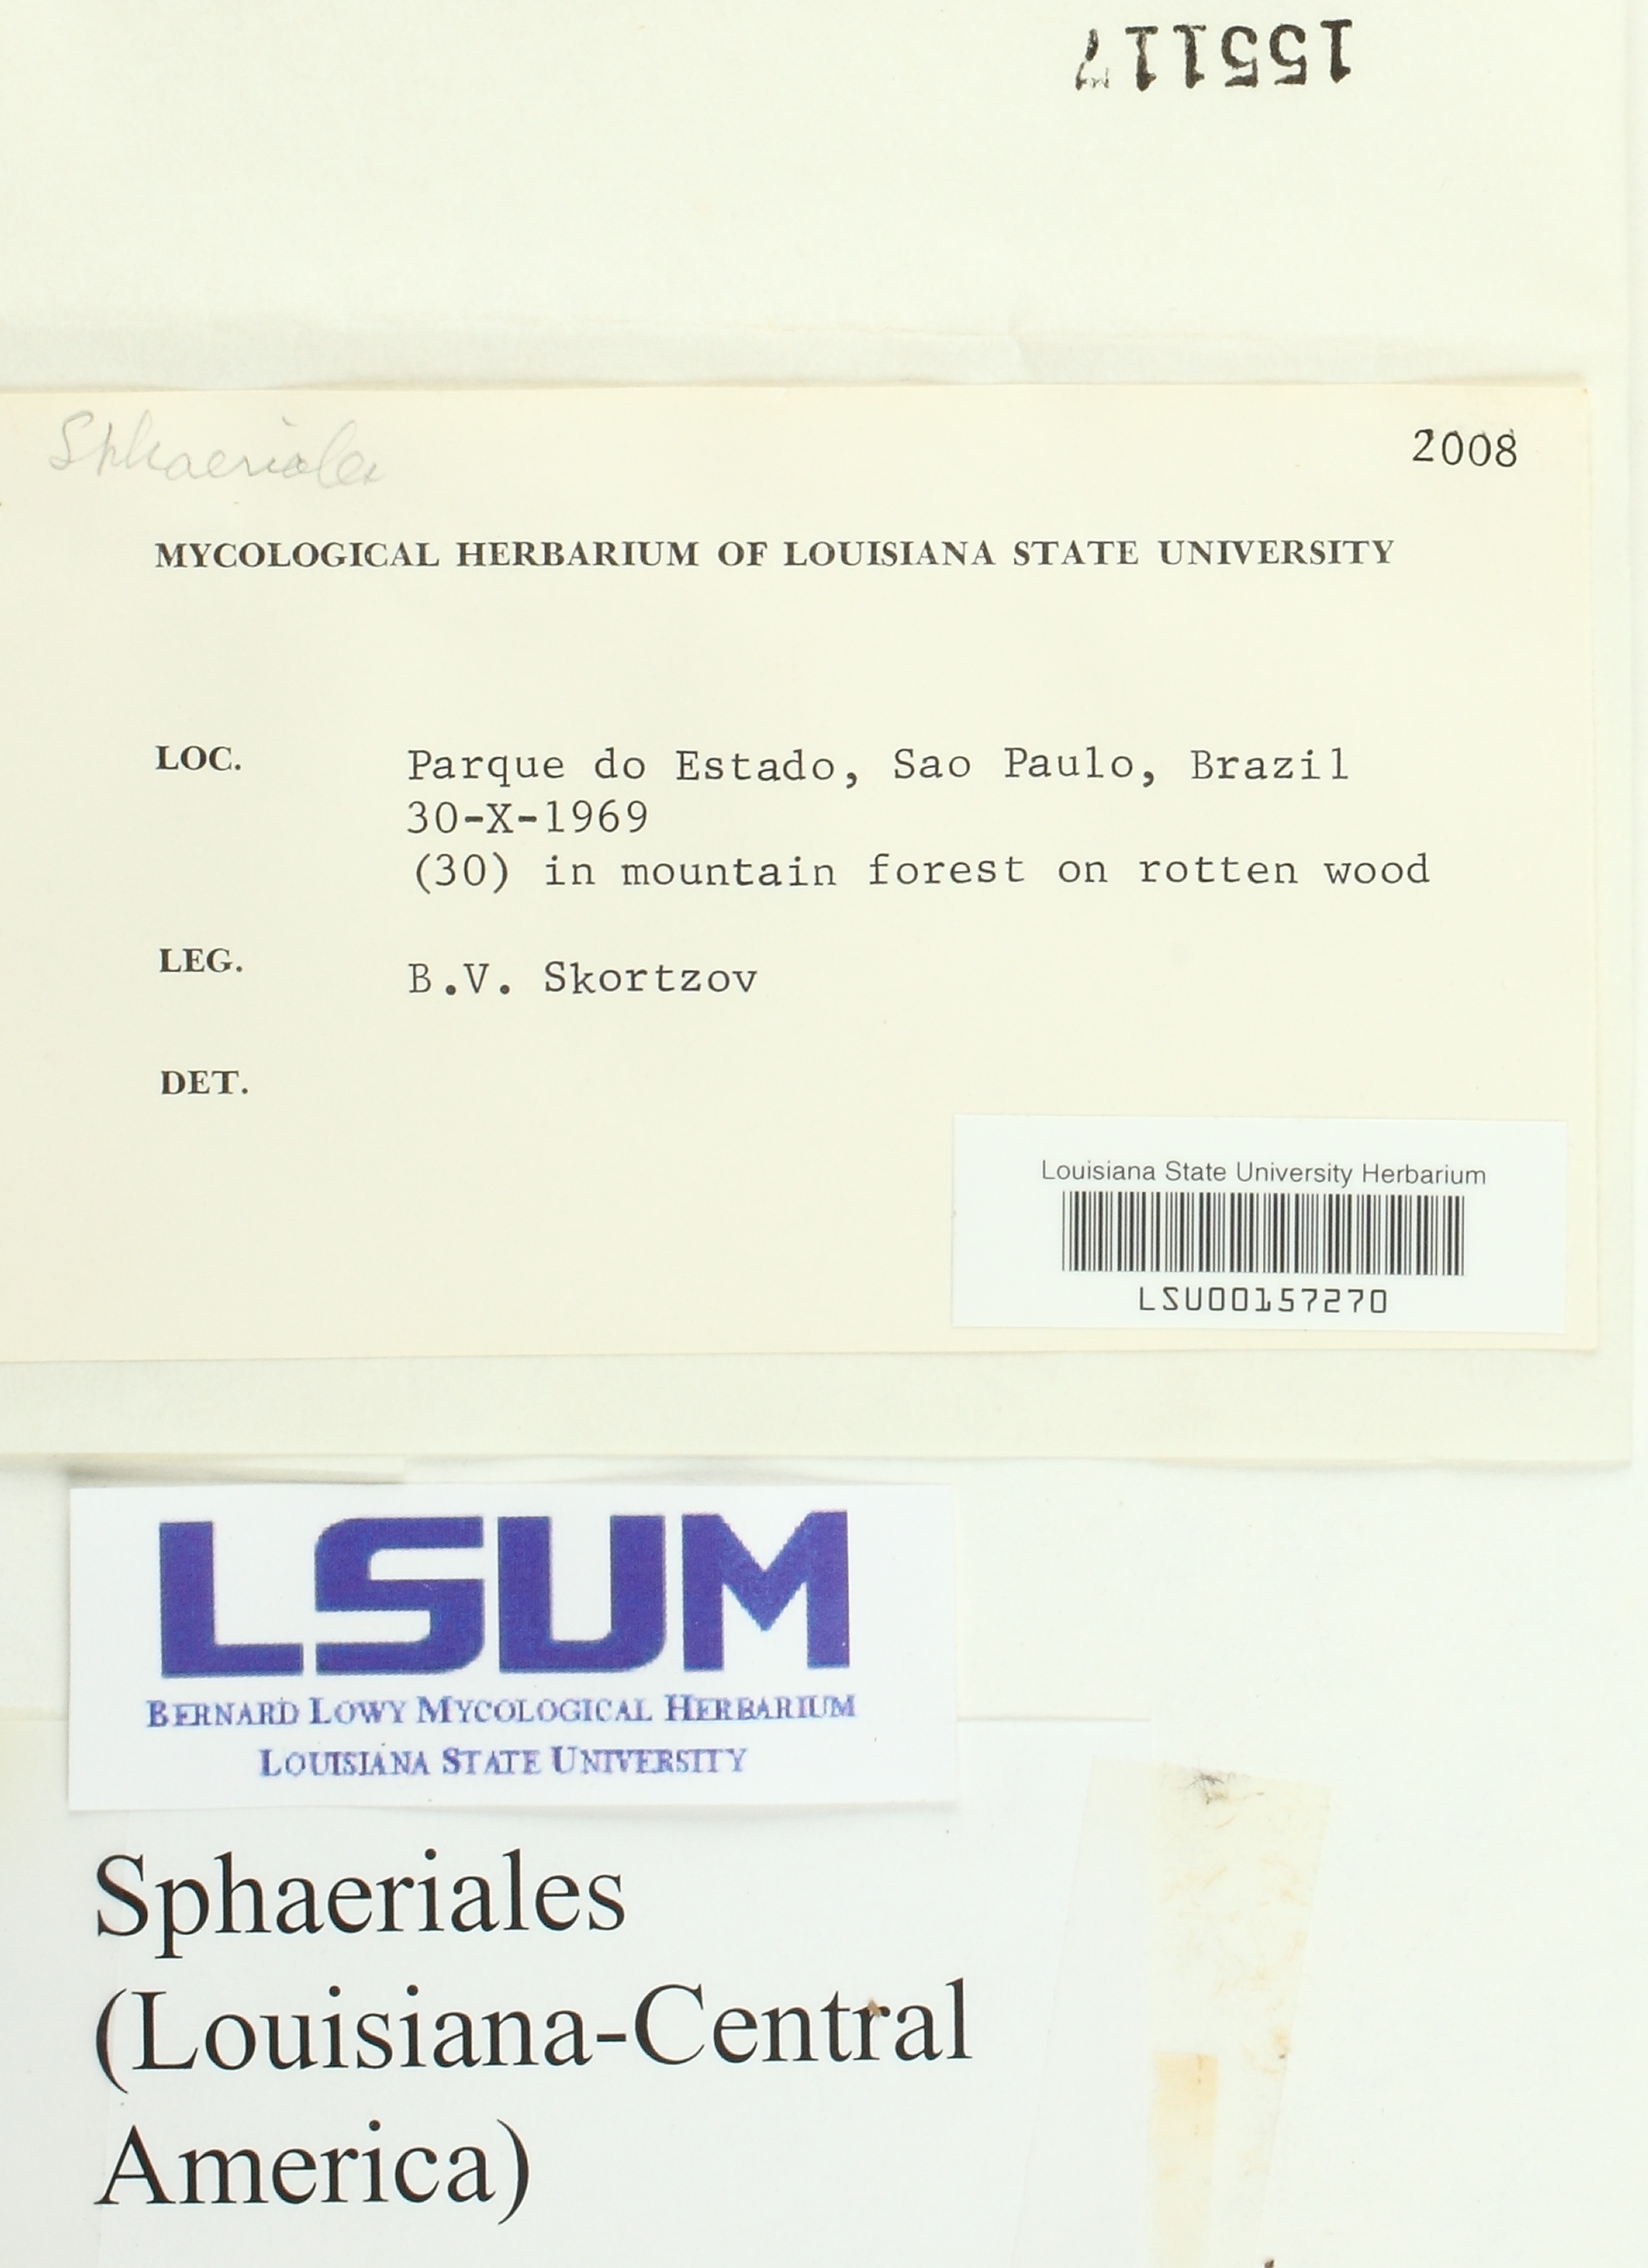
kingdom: Fungi
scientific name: Fungi
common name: Fungi
